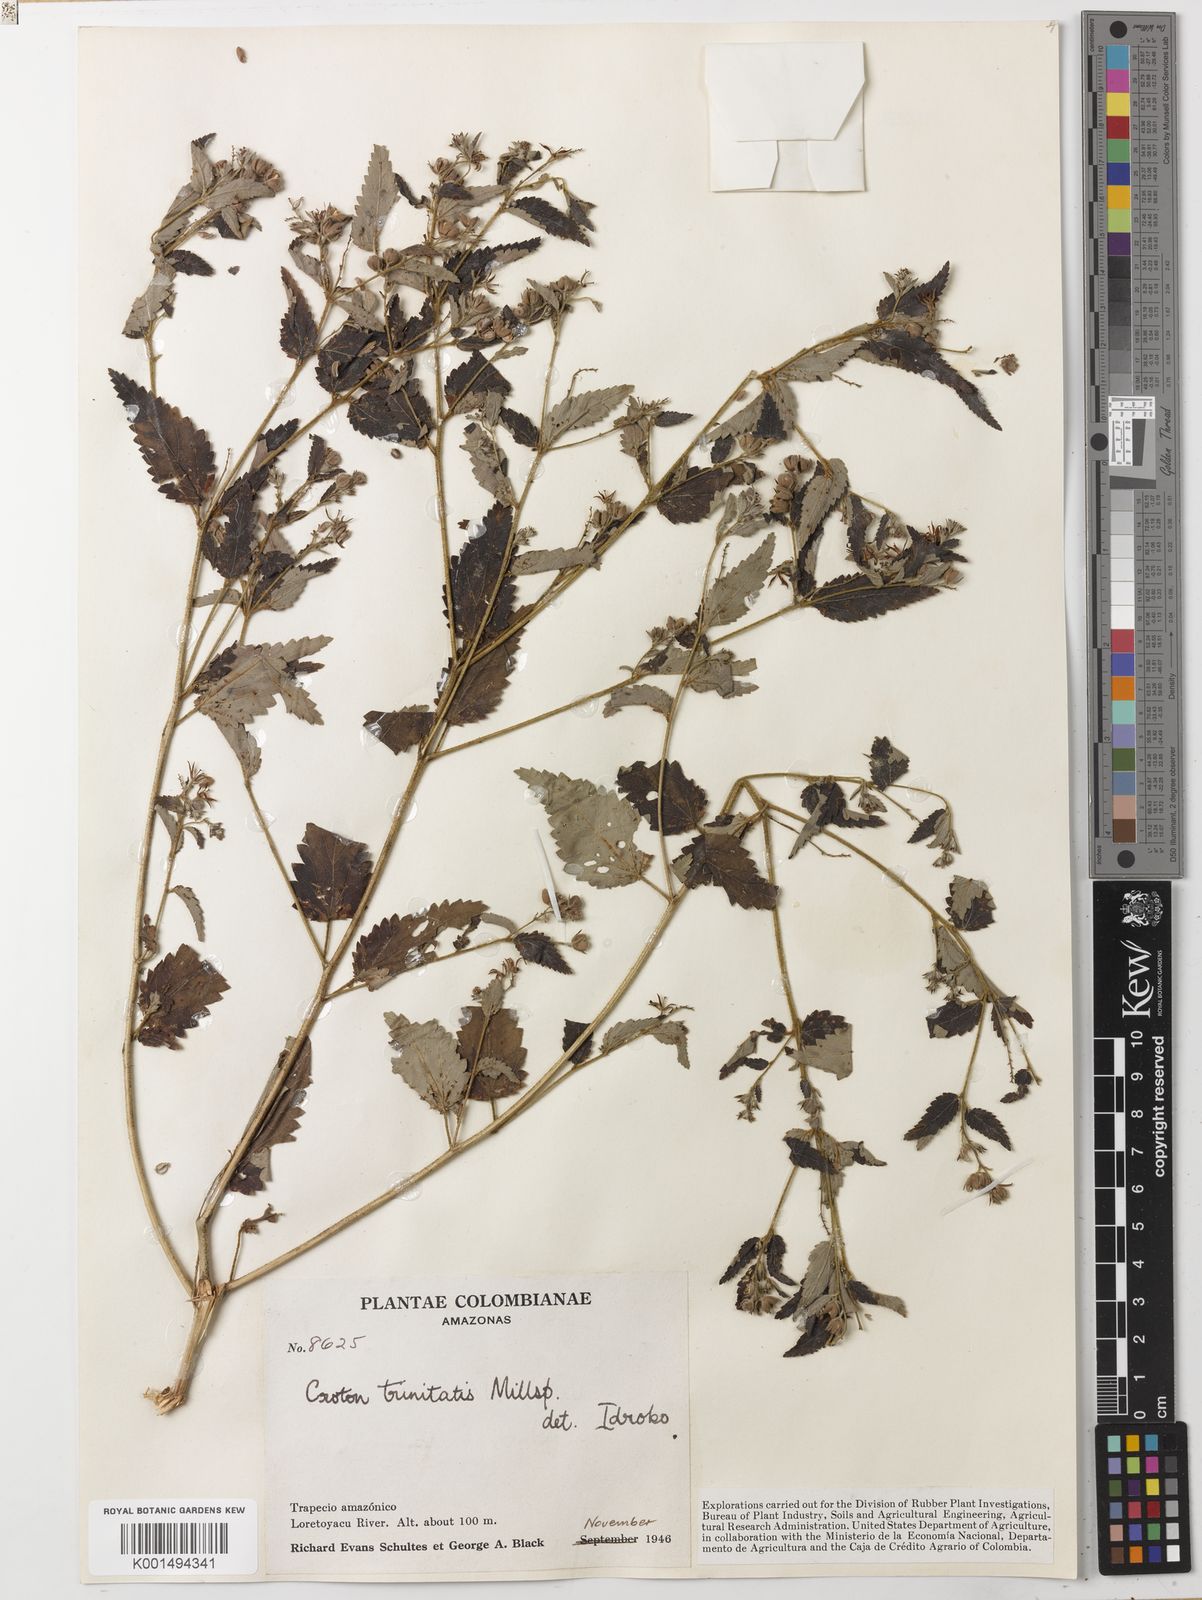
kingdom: Plantae
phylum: Tracheophyta
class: Magnoliopsida
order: Malpighiales
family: Euphorbiaceae
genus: Croton
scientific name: Croton trinitatis
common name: Roadside croton
